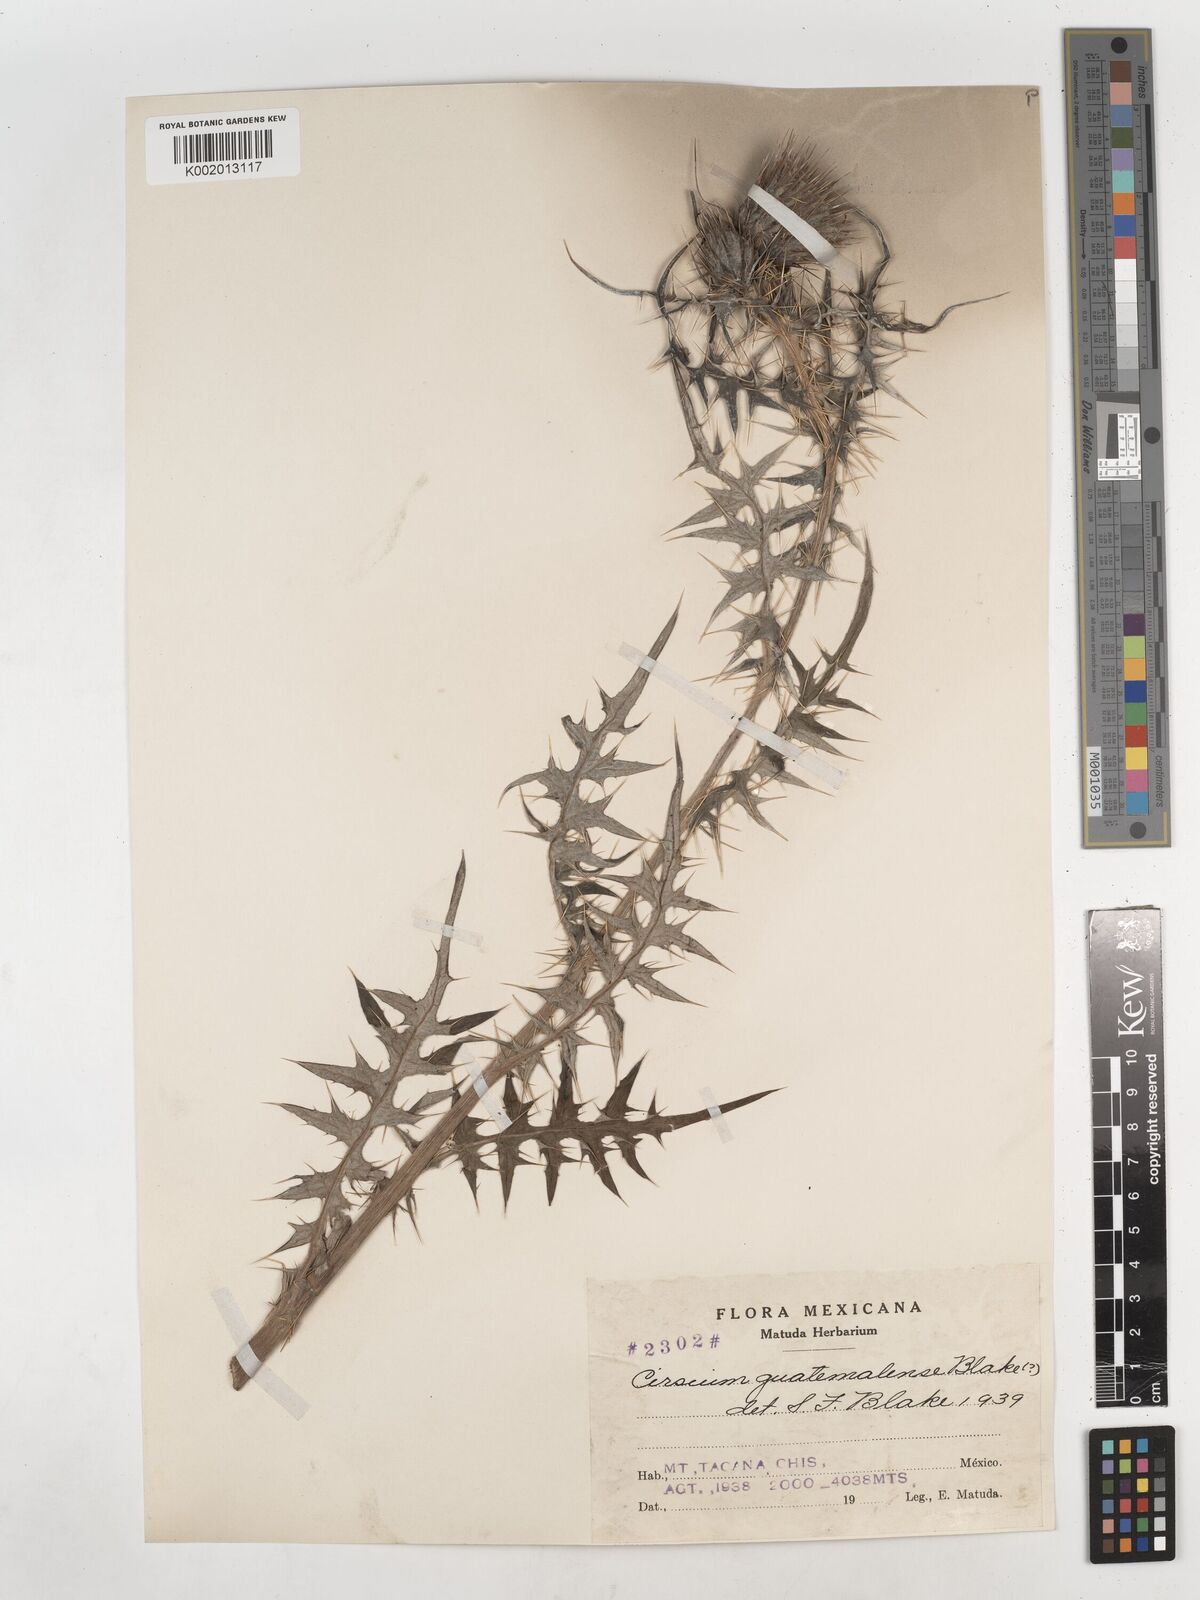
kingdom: Plantae
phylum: Tracheophyta
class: Magnoliopsida
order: Asterales
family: Asteraceae
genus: Cirsium
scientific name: Cirsium radians
